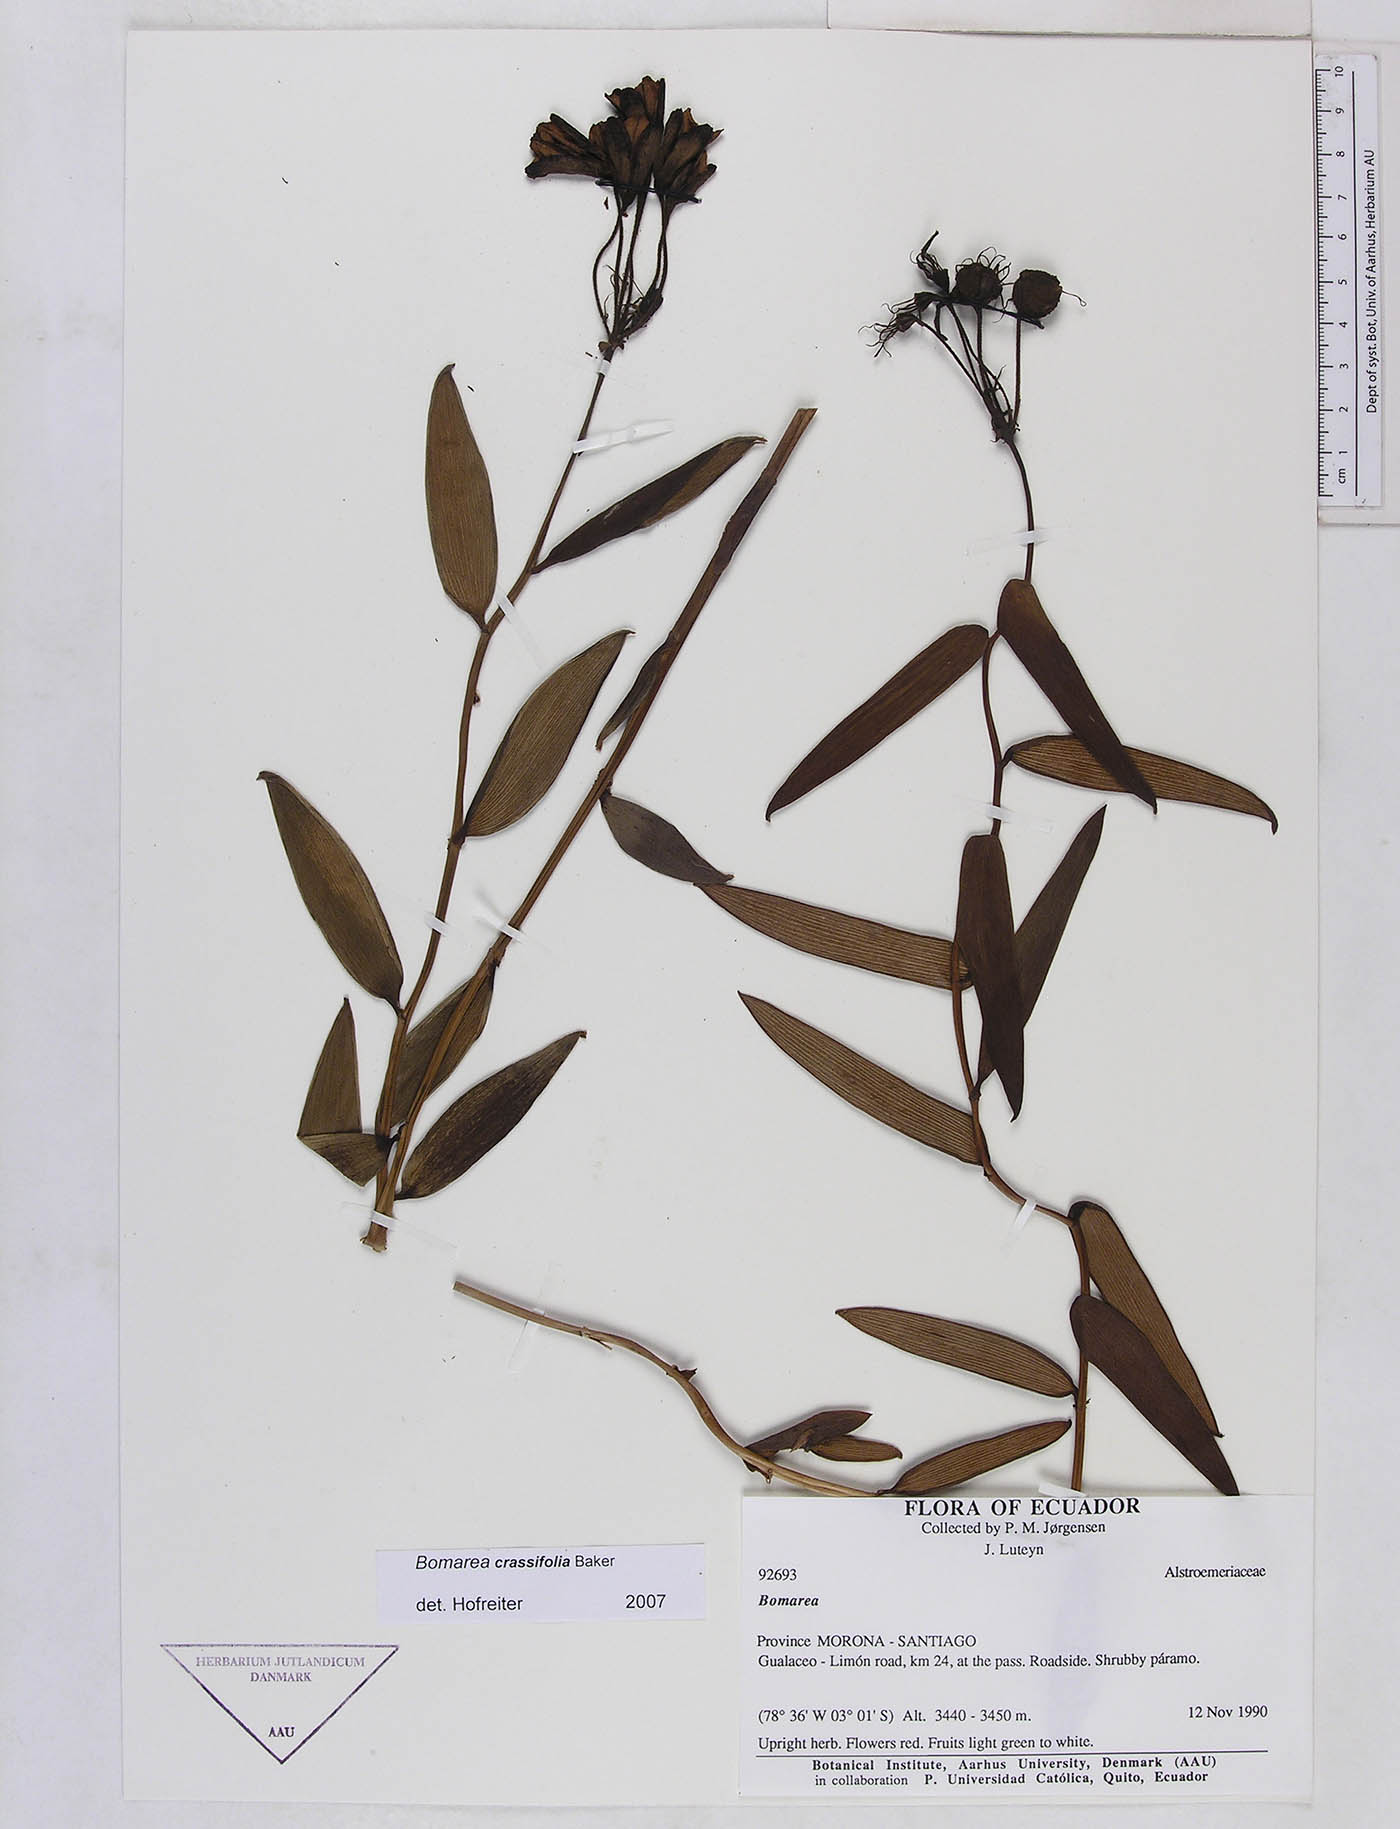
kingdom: Plantae
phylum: Tracheophyta
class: Liliopsida
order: Liliales
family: Alstroemeriaceae
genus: Bomarea
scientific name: Bomarea crassifolia
